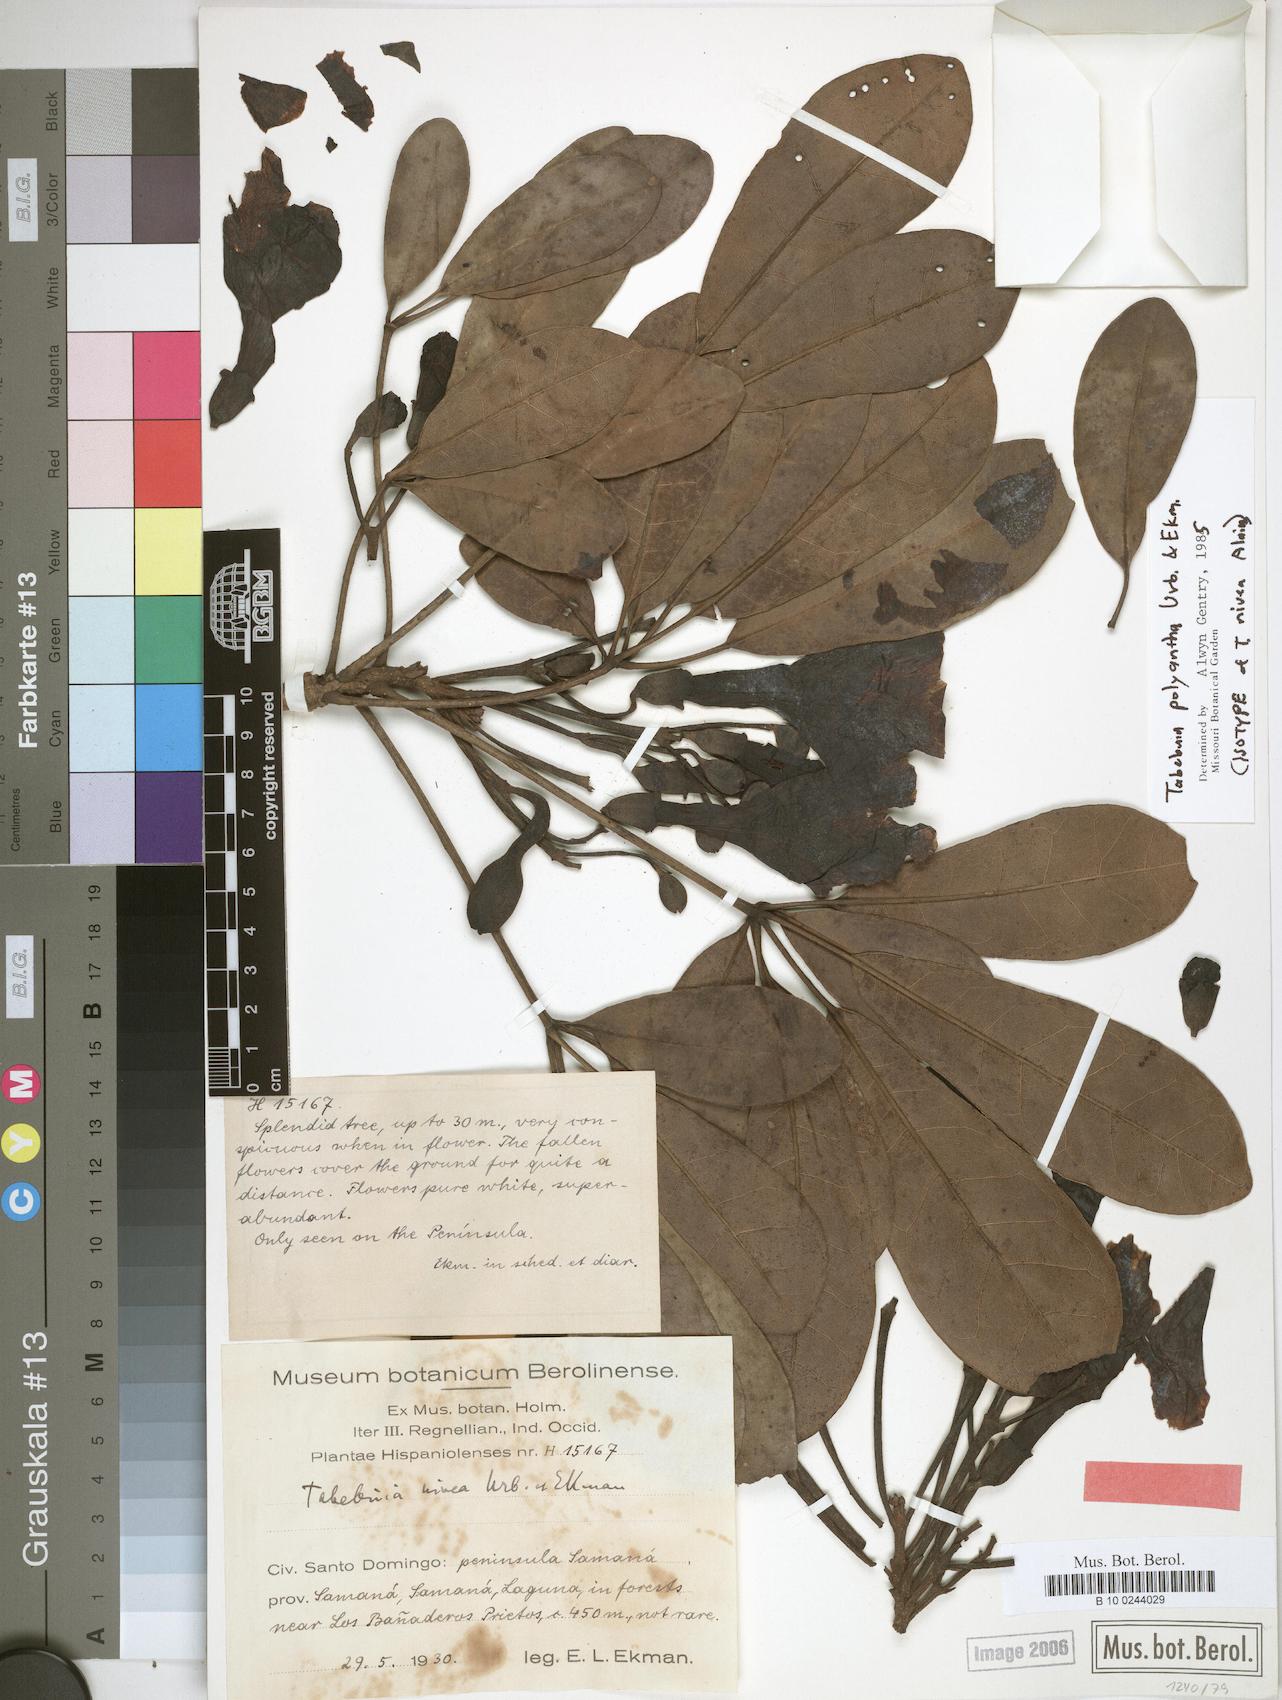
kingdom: Plantae
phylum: Tracheophyta
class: Magnoliopsida
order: Lamiales
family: Bignoniaceae
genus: Tabebuia
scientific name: Tabebuia polyantha
